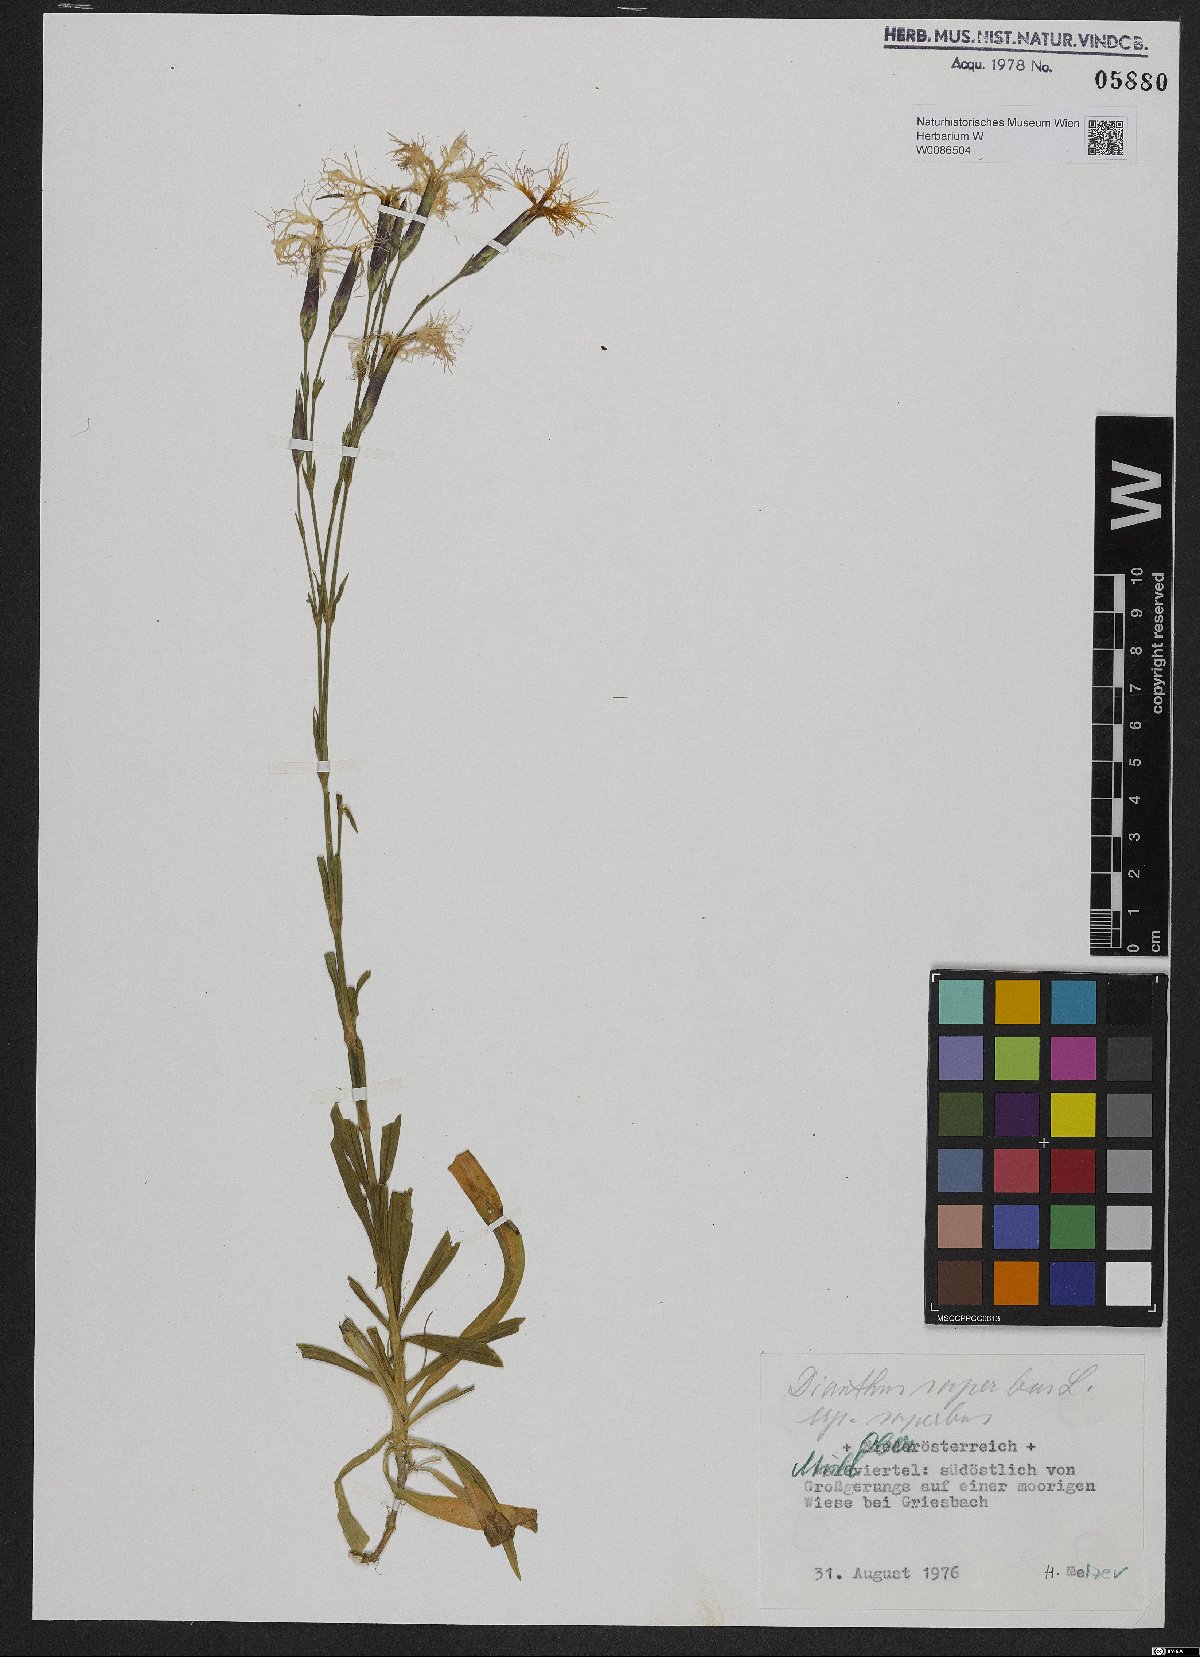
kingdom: Plantae
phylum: Tracheophyta
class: Magnoliopsida
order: Caryophyllales
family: Caryophyllaceae
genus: Dianthus
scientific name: Dianthus superbus
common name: Fringed pink
